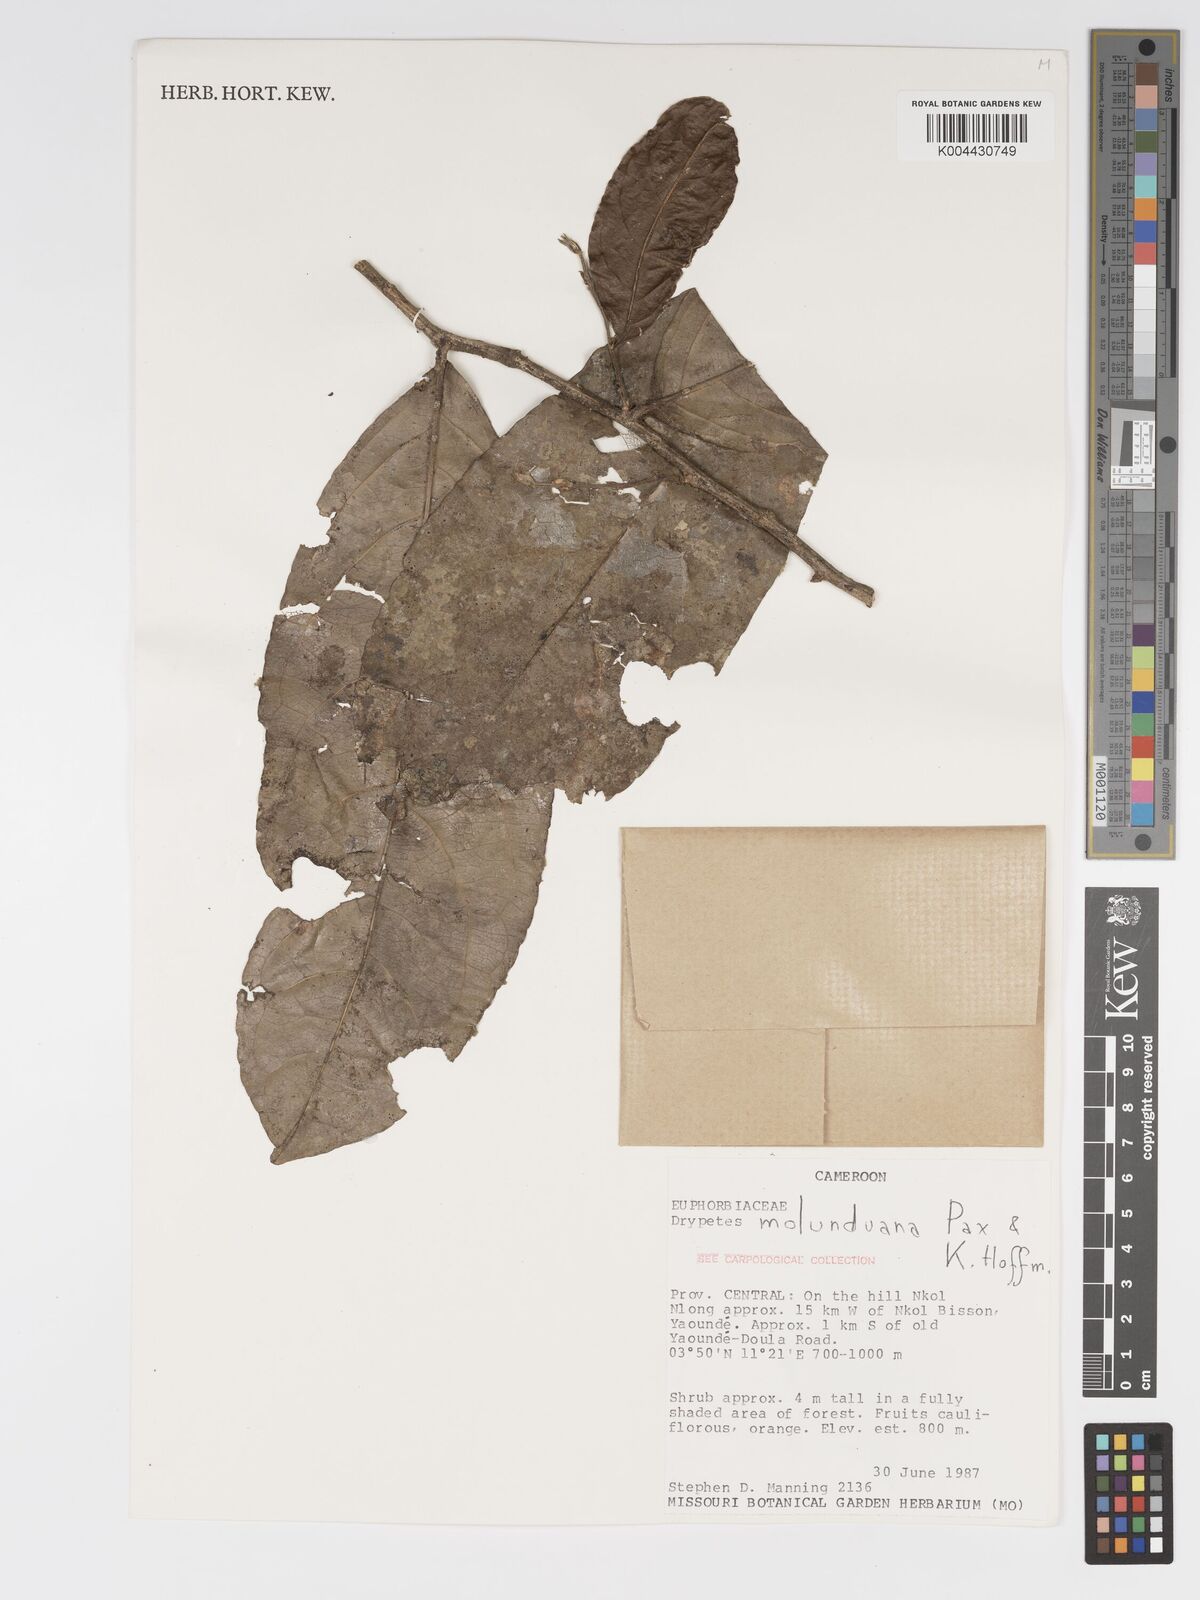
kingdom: Plantae
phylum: Tracheophyta
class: Magnoliopsida
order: Malpighiales
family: Putranjivaceae
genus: Drypetes
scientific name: Drypetes molunduana
